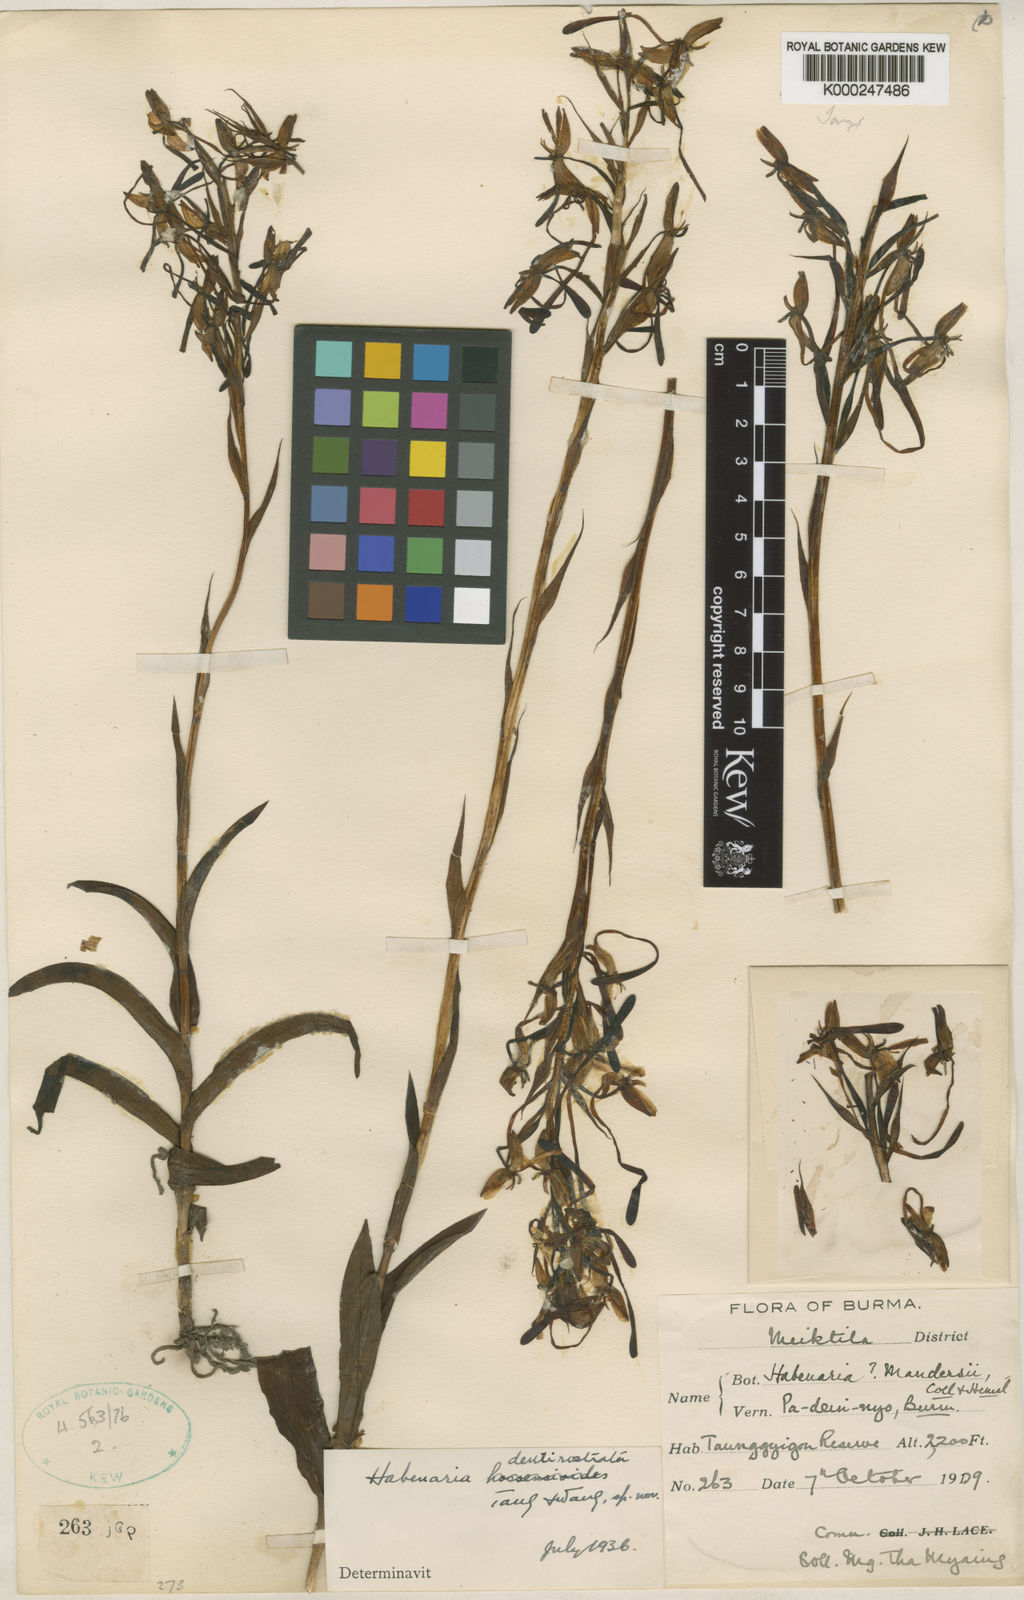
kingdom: Plantae
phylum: Tracheophyta
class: Liliopsida
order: Asparagales
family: Orchidaceae
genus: Habenaria
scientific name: Habenaria dentirostrata
